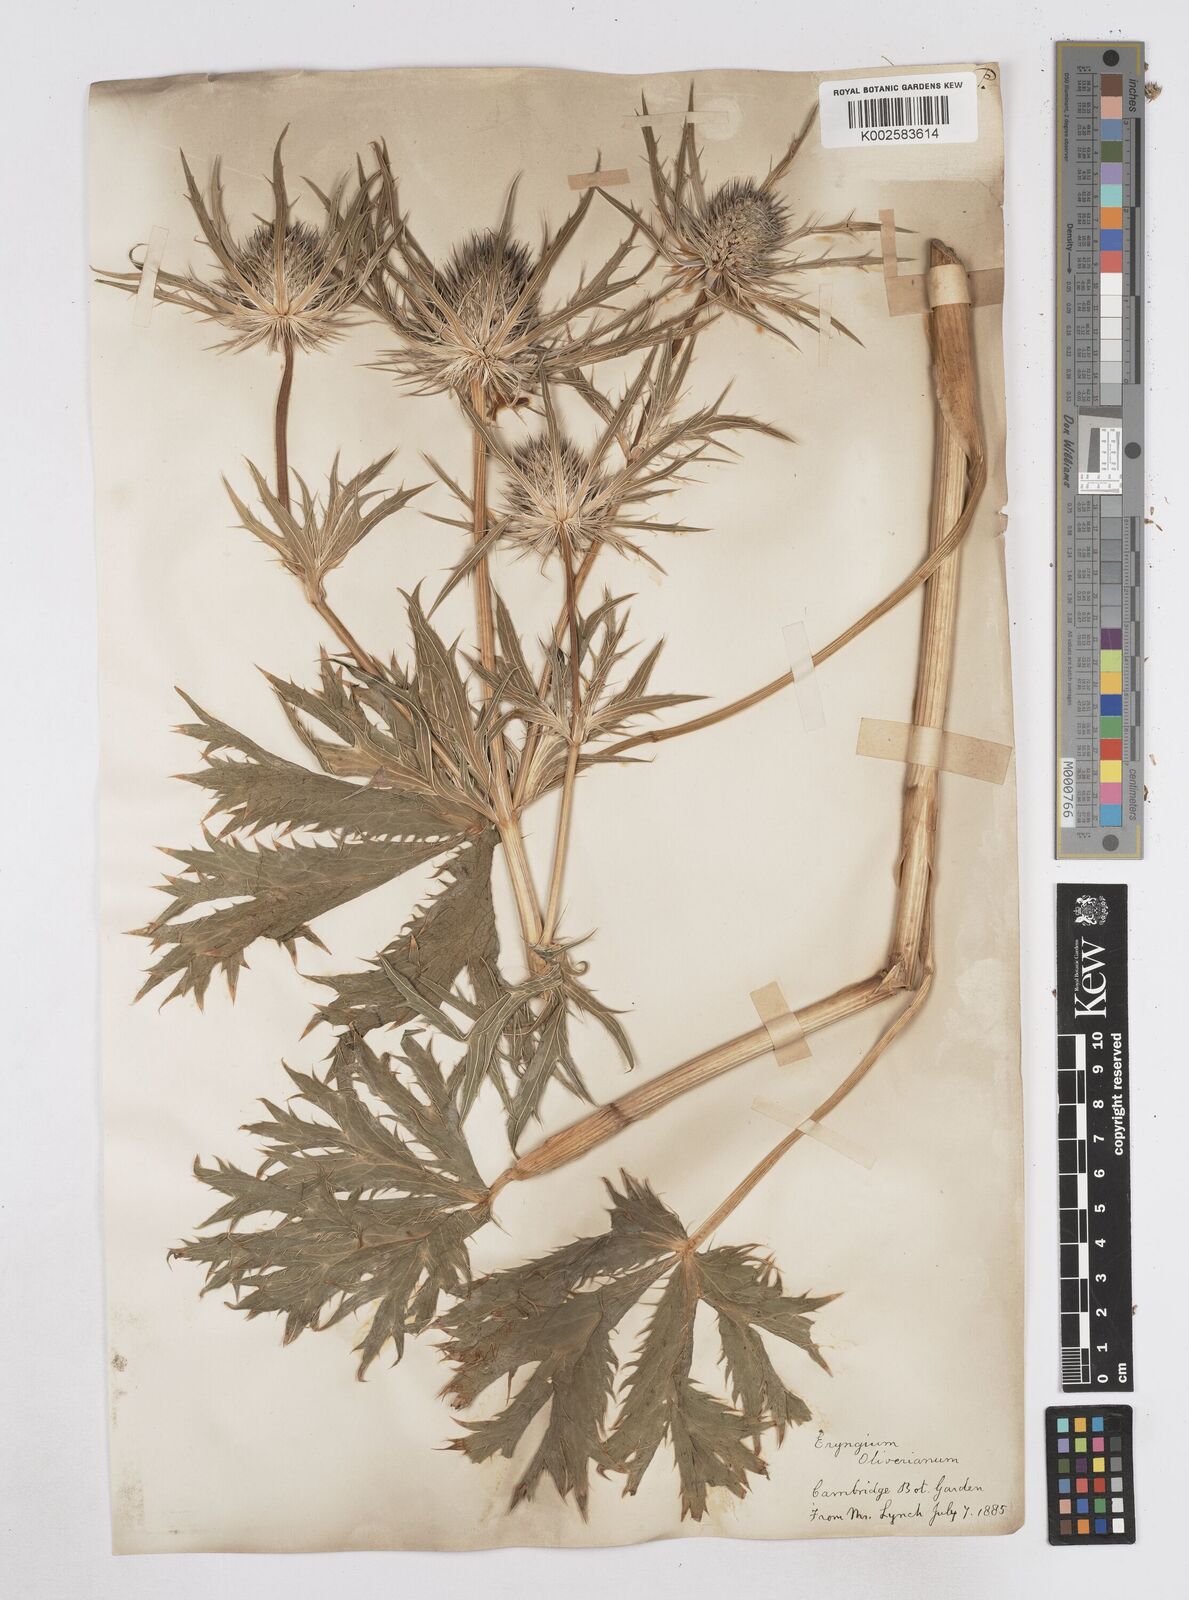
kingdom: Plantae
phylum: Tracheophyta
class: Magnoliopsida
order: Apiales
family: Apiaceae
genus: Eryngium
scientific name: Eryngium oliverianum
